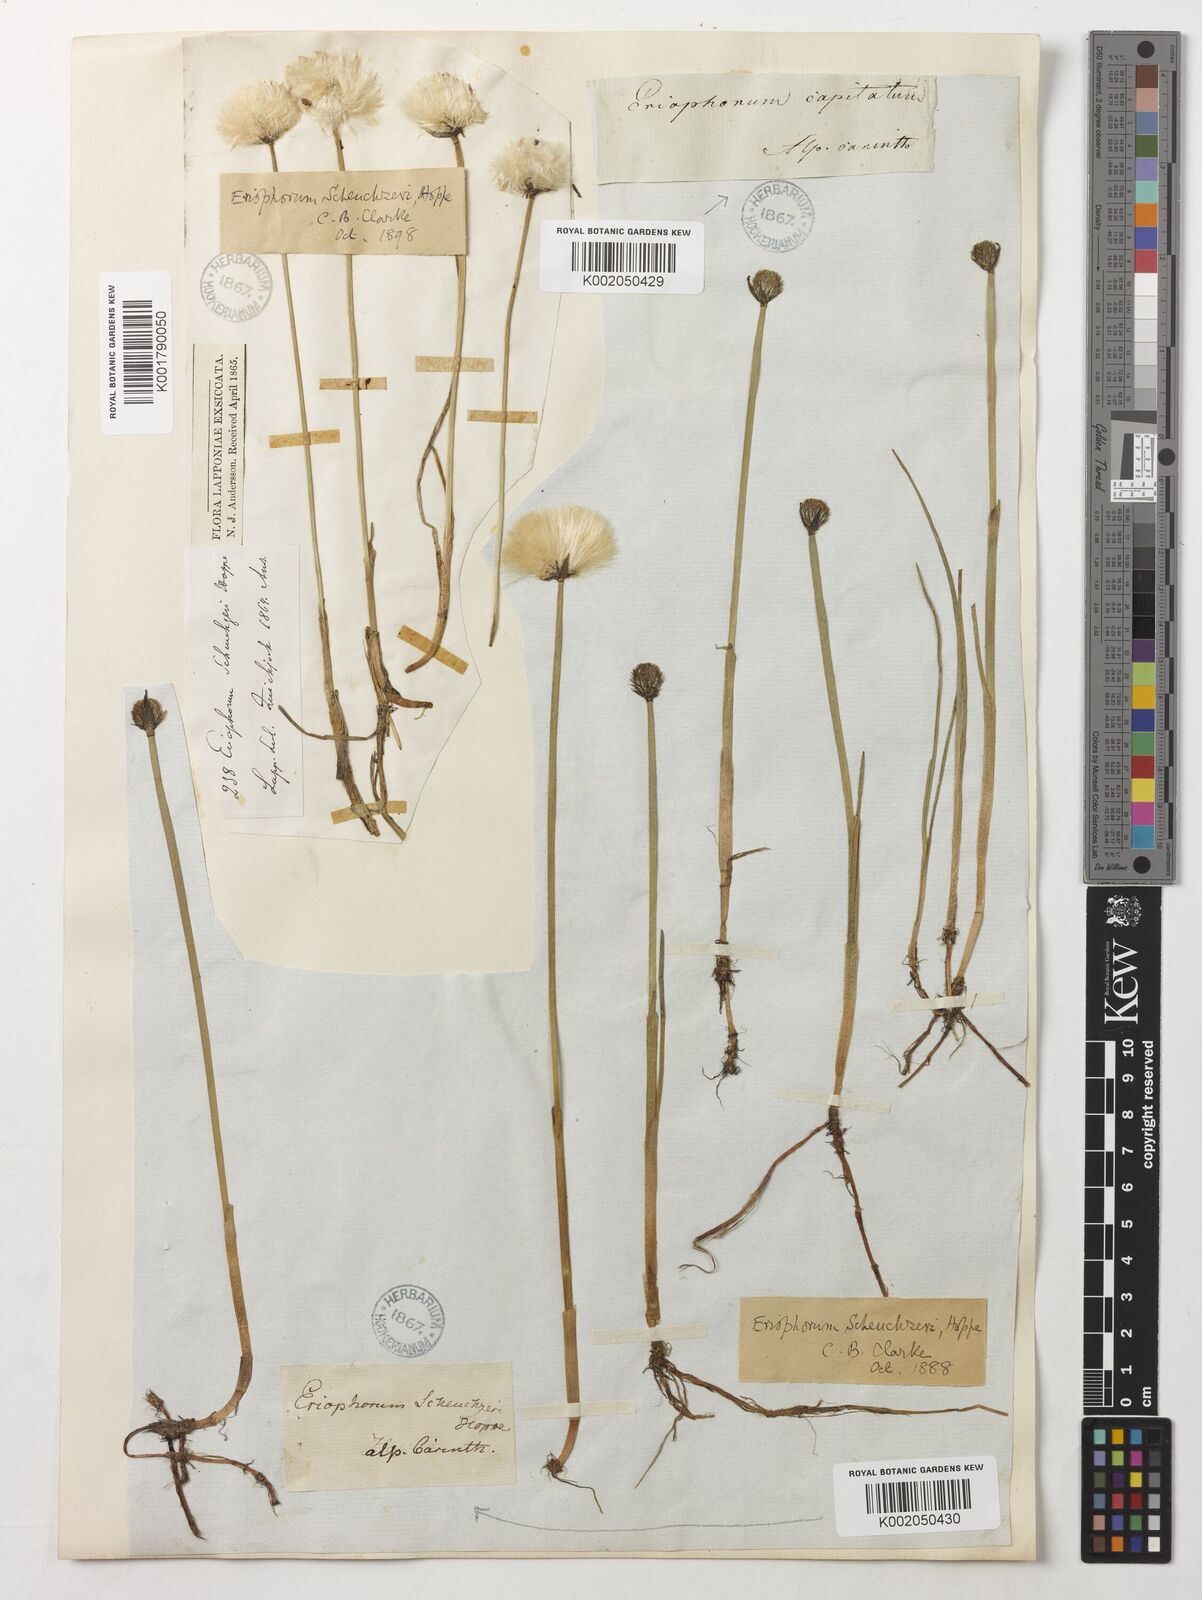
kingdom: Plantae
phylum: Tracheophyta
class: Liliopsida
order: Poales
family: Cyperaceae
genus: Eriophorum
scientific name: Eriophorum scheuchzeri
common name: Scheuchzer's cottongrass
